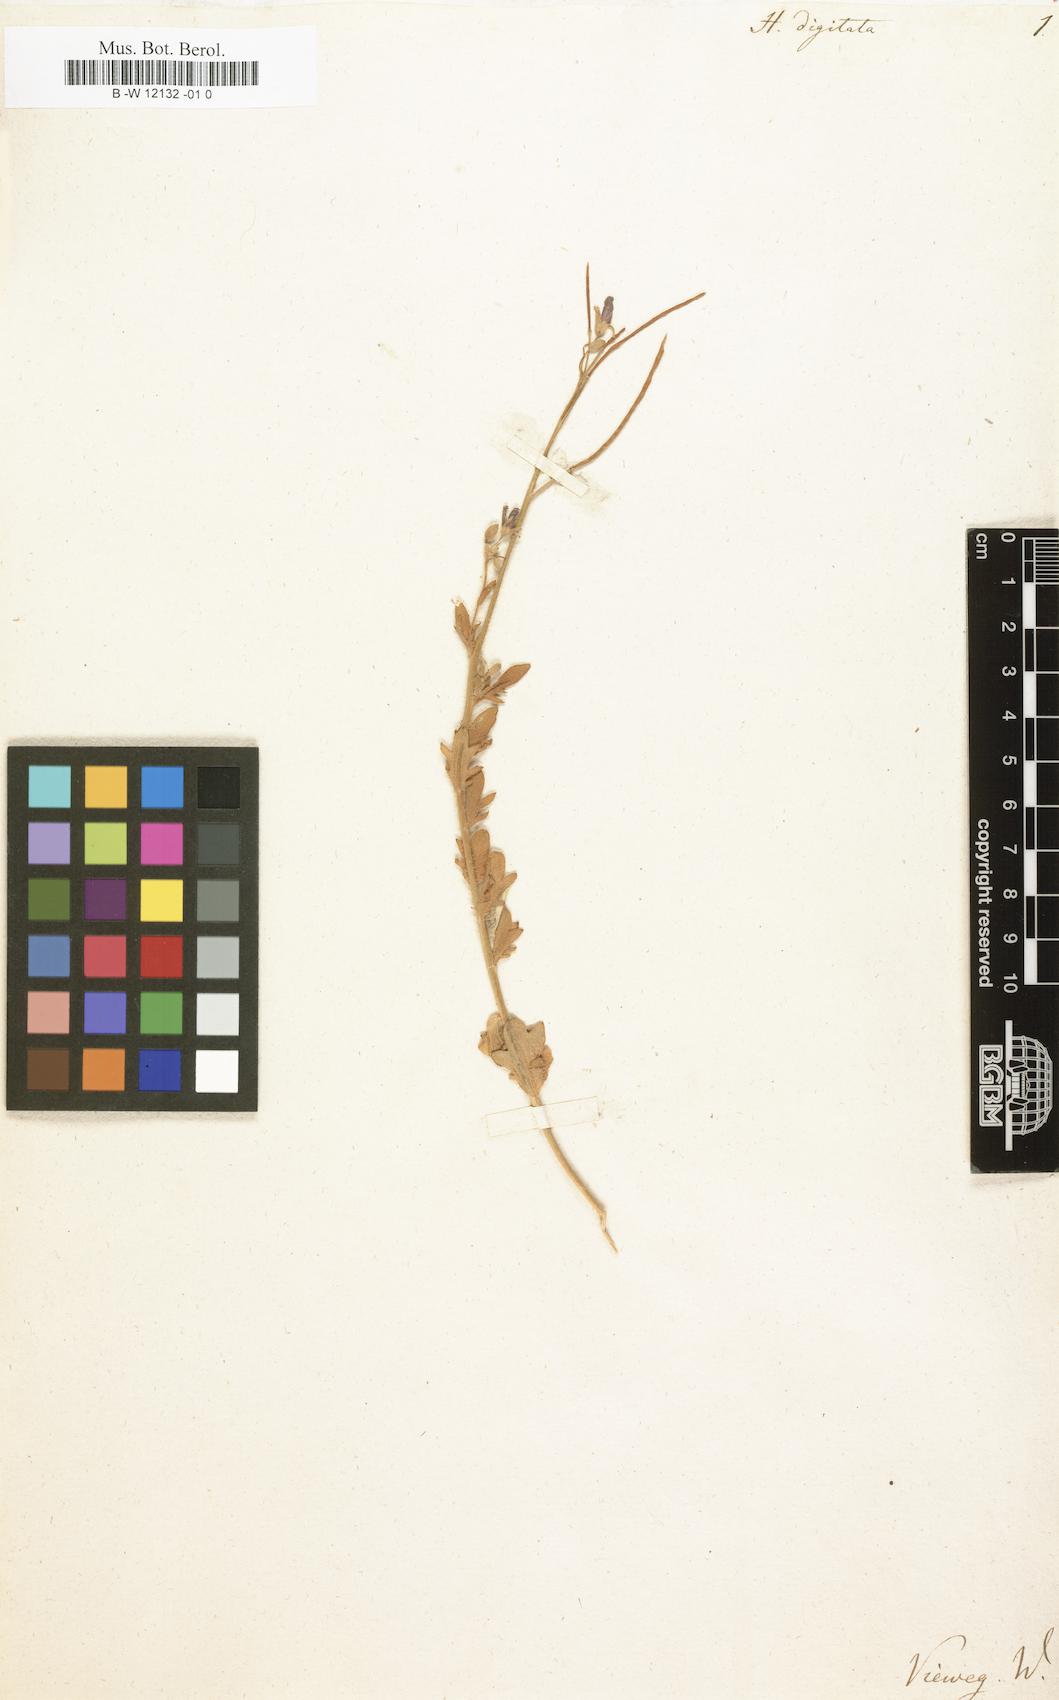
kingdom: Plantae
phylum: Tracheophyta
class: Magnoliopsida
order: Brassicales
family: Brassicaceae
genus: Heliophila
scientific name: Heliophila digitata
